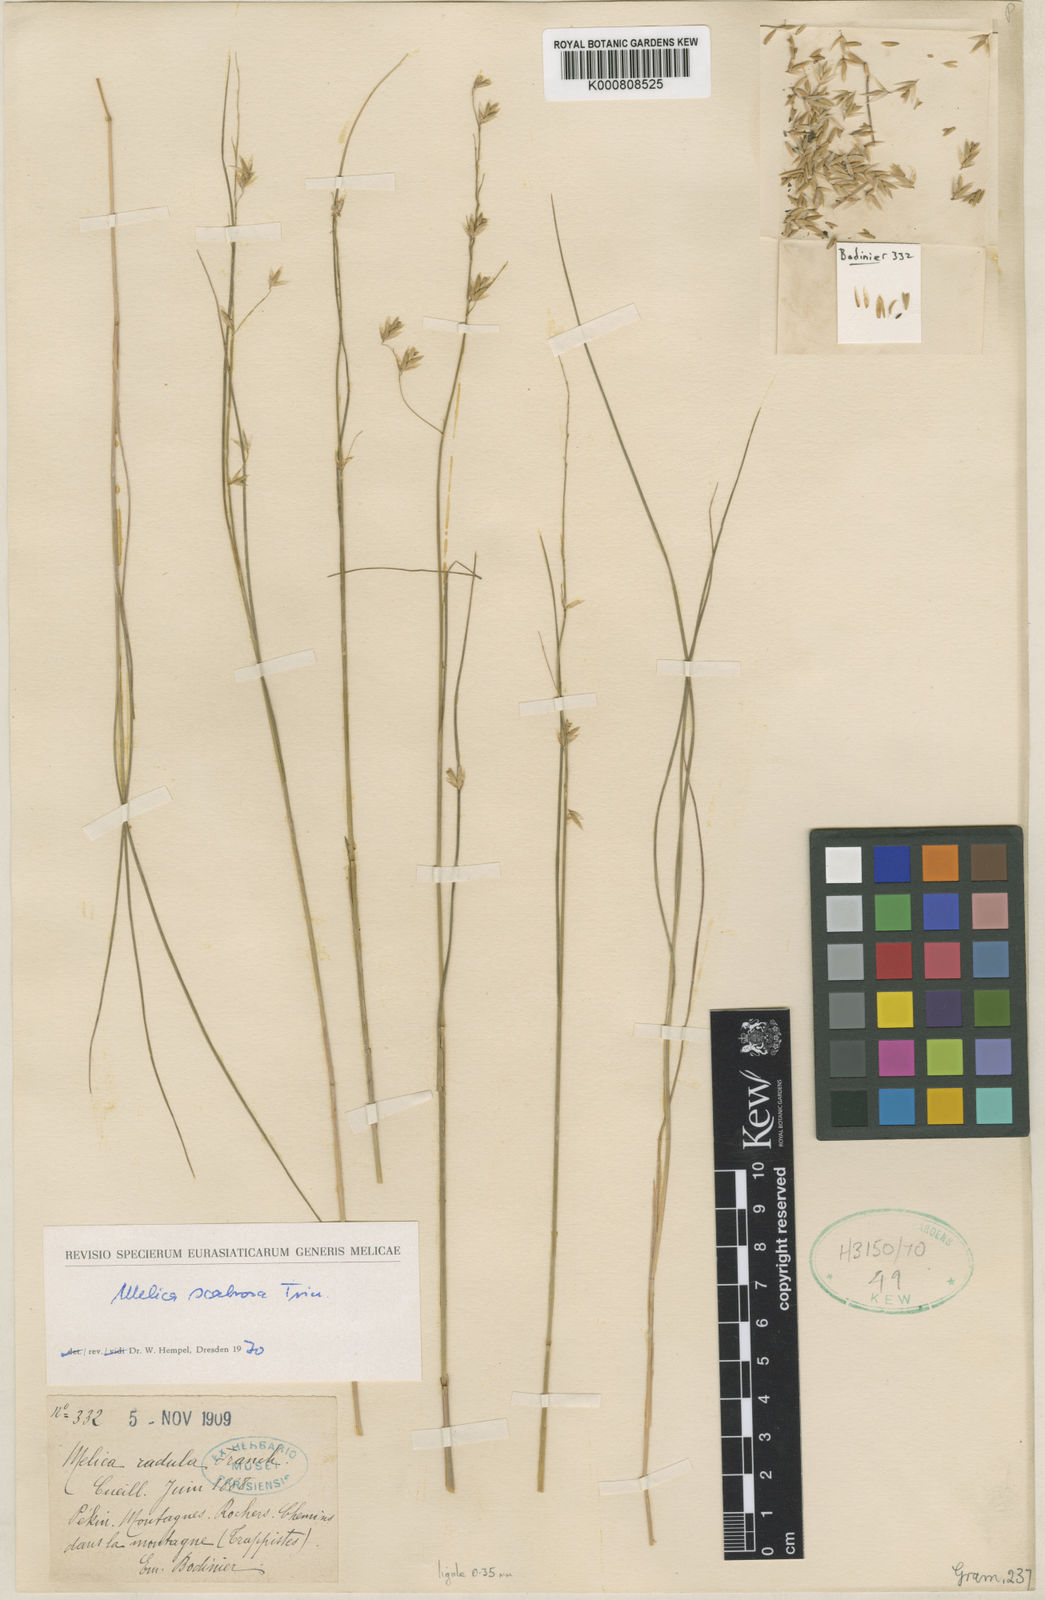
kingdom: Plantae
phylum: Tracheophyta
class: Liliopsida
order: Poales
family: Poaceae
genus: Melica
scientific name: Melica radula
